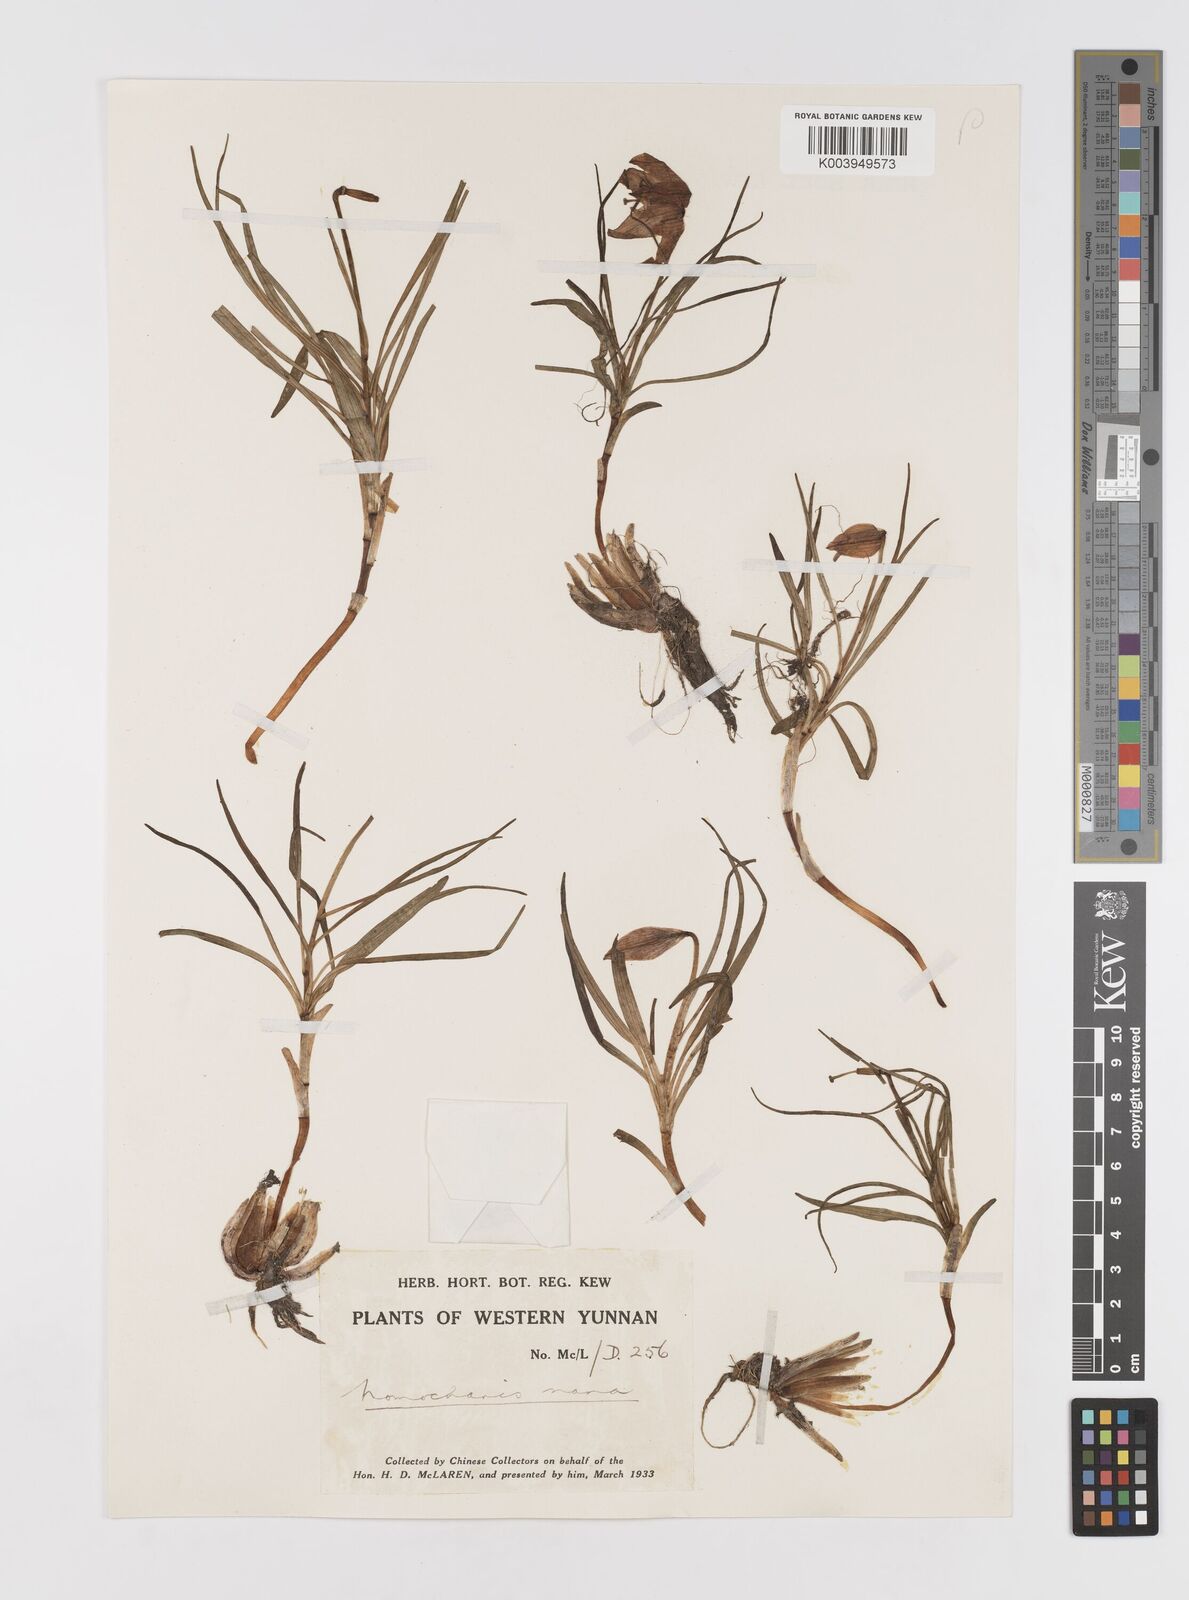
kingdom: Plantae
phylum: Tracheophyta
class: Liliopsida
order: Liliales
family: Liliaceae
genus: Lilium
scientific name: Lilium
